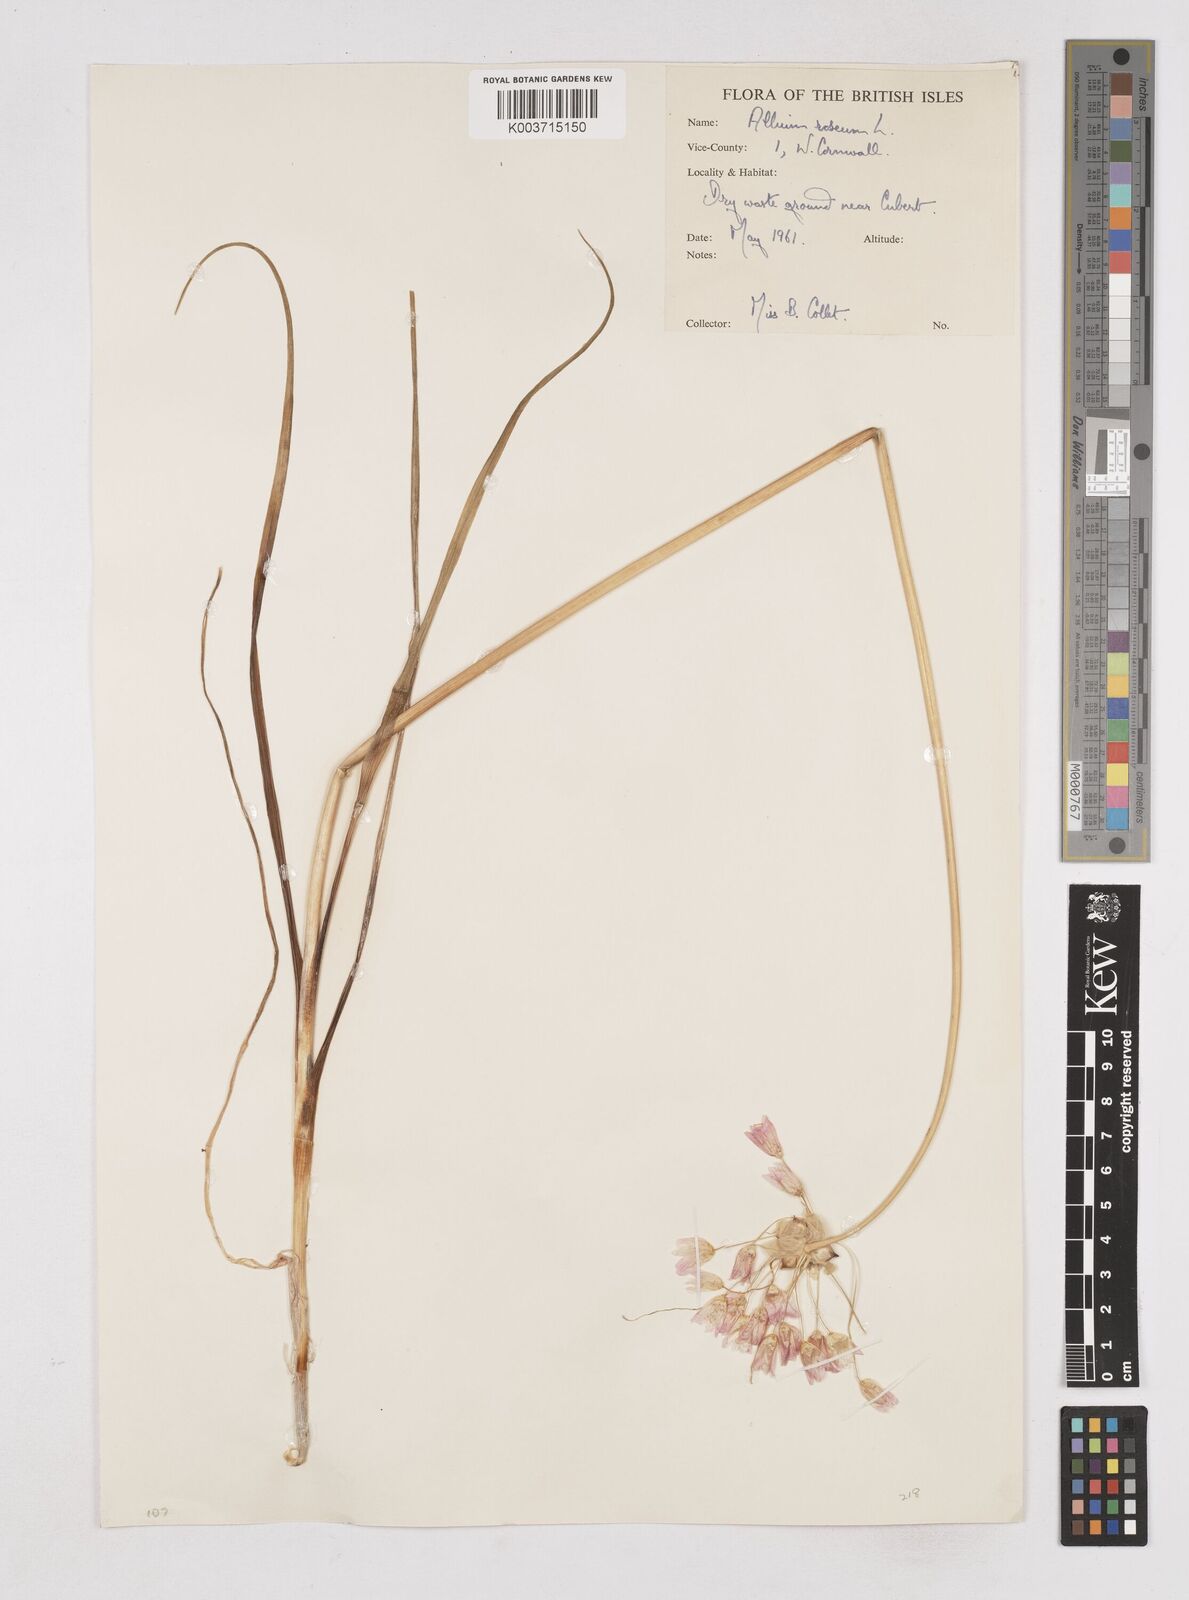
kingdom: Plantae
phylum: Tracheophyta
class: Liliopsida
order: Asparagales
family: Amaryllidaceae
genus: Allium
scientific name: Allium roseum
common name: Rosy garlic
